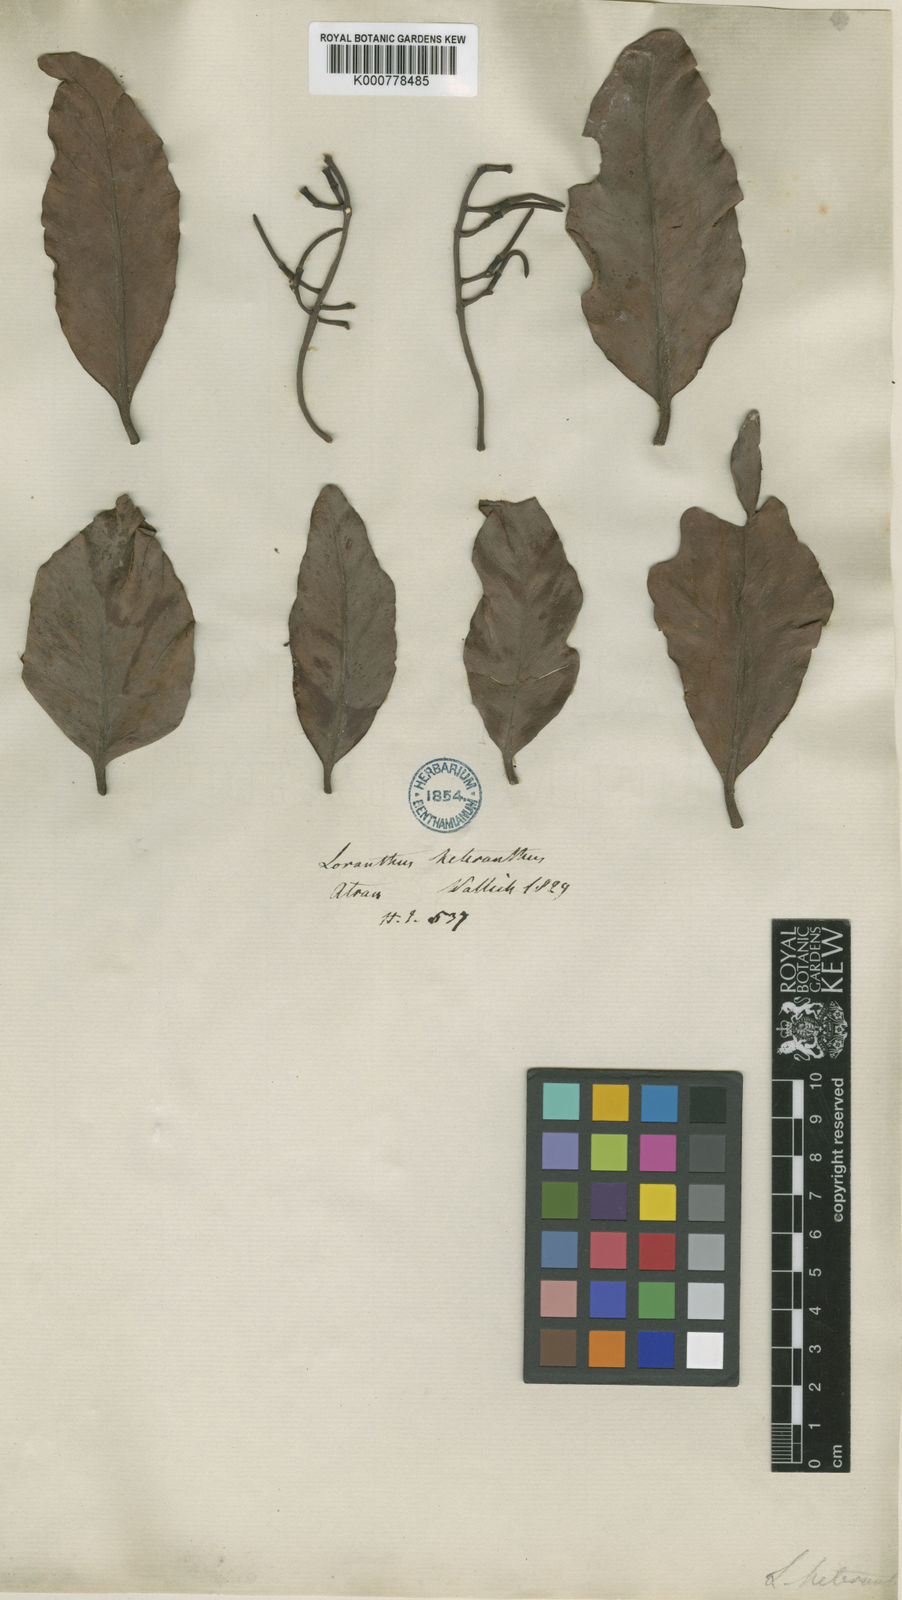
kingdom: Plantae
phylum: Tracheophyta
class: Magnoliopsida
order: Santalales
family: Loranthaceae
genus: Loranthus
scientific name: Loranthus
